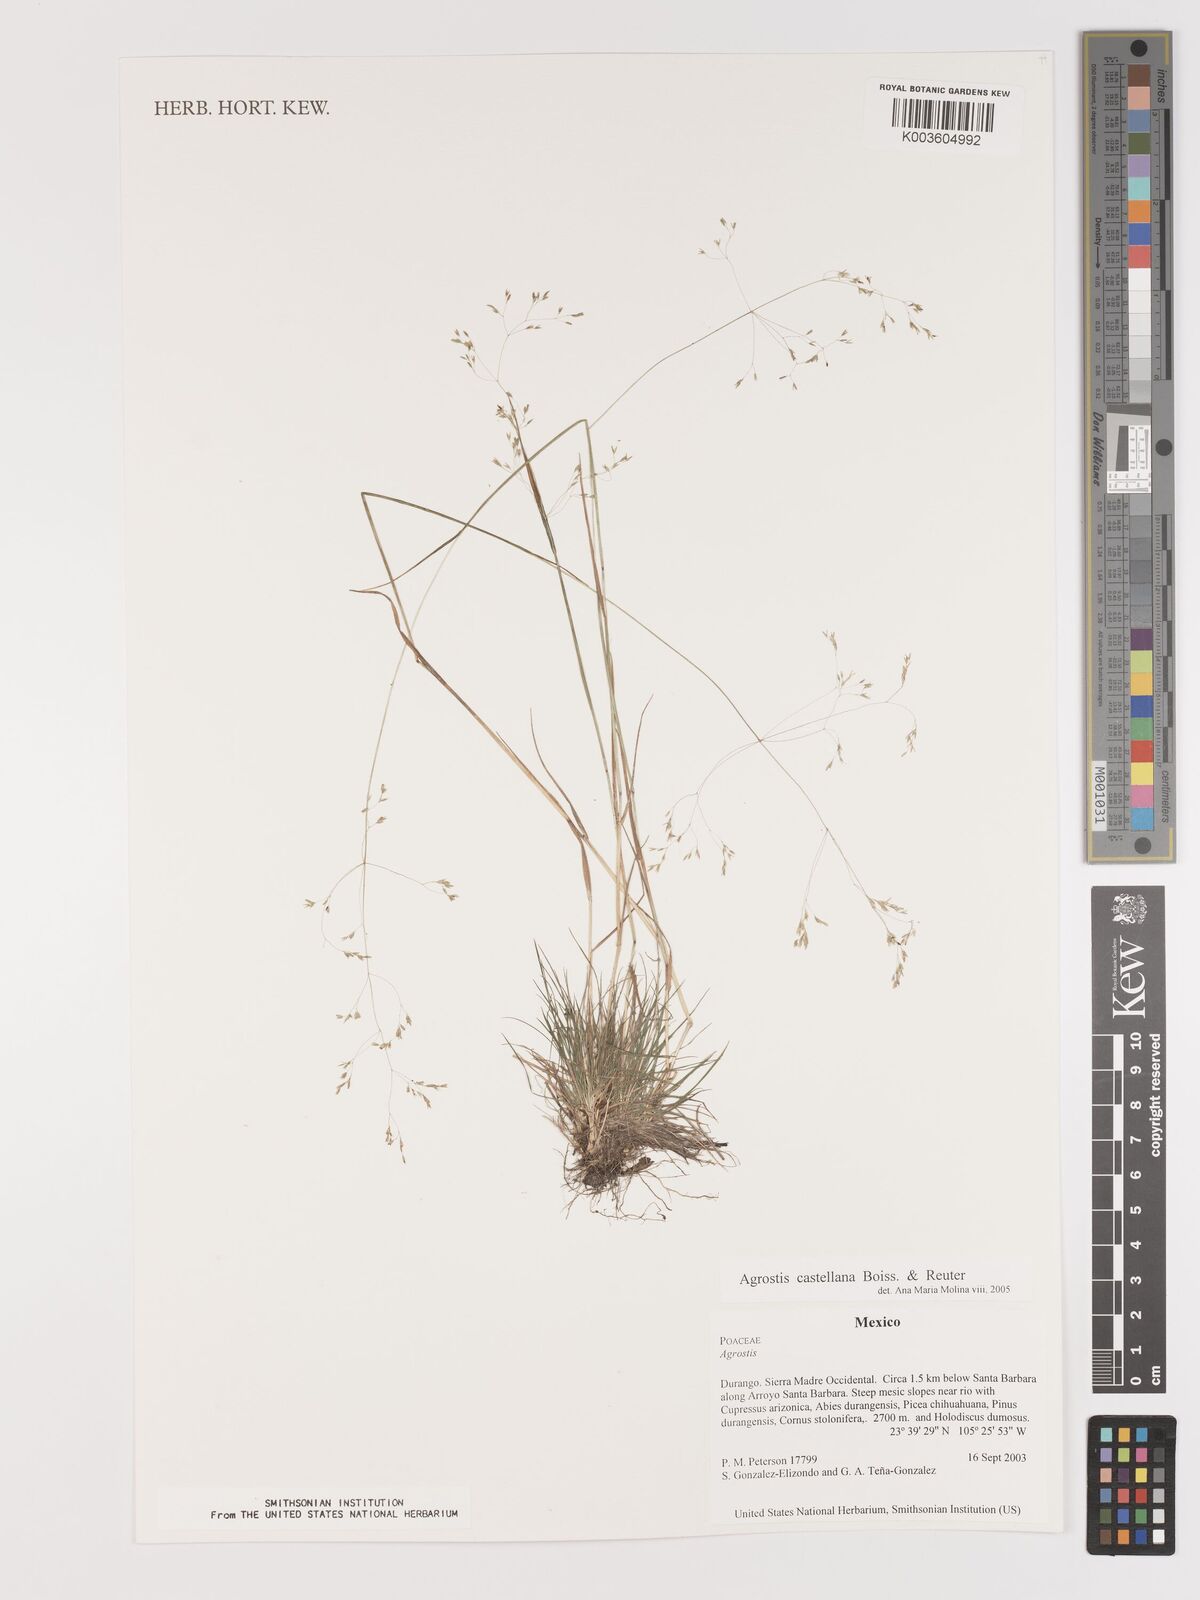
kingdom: Plantae
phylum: Tracheophyta
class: Liliopsida
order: Poales
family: Poaceae
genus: Agrostis
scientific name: Agrostis castellana
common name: Highland bent
